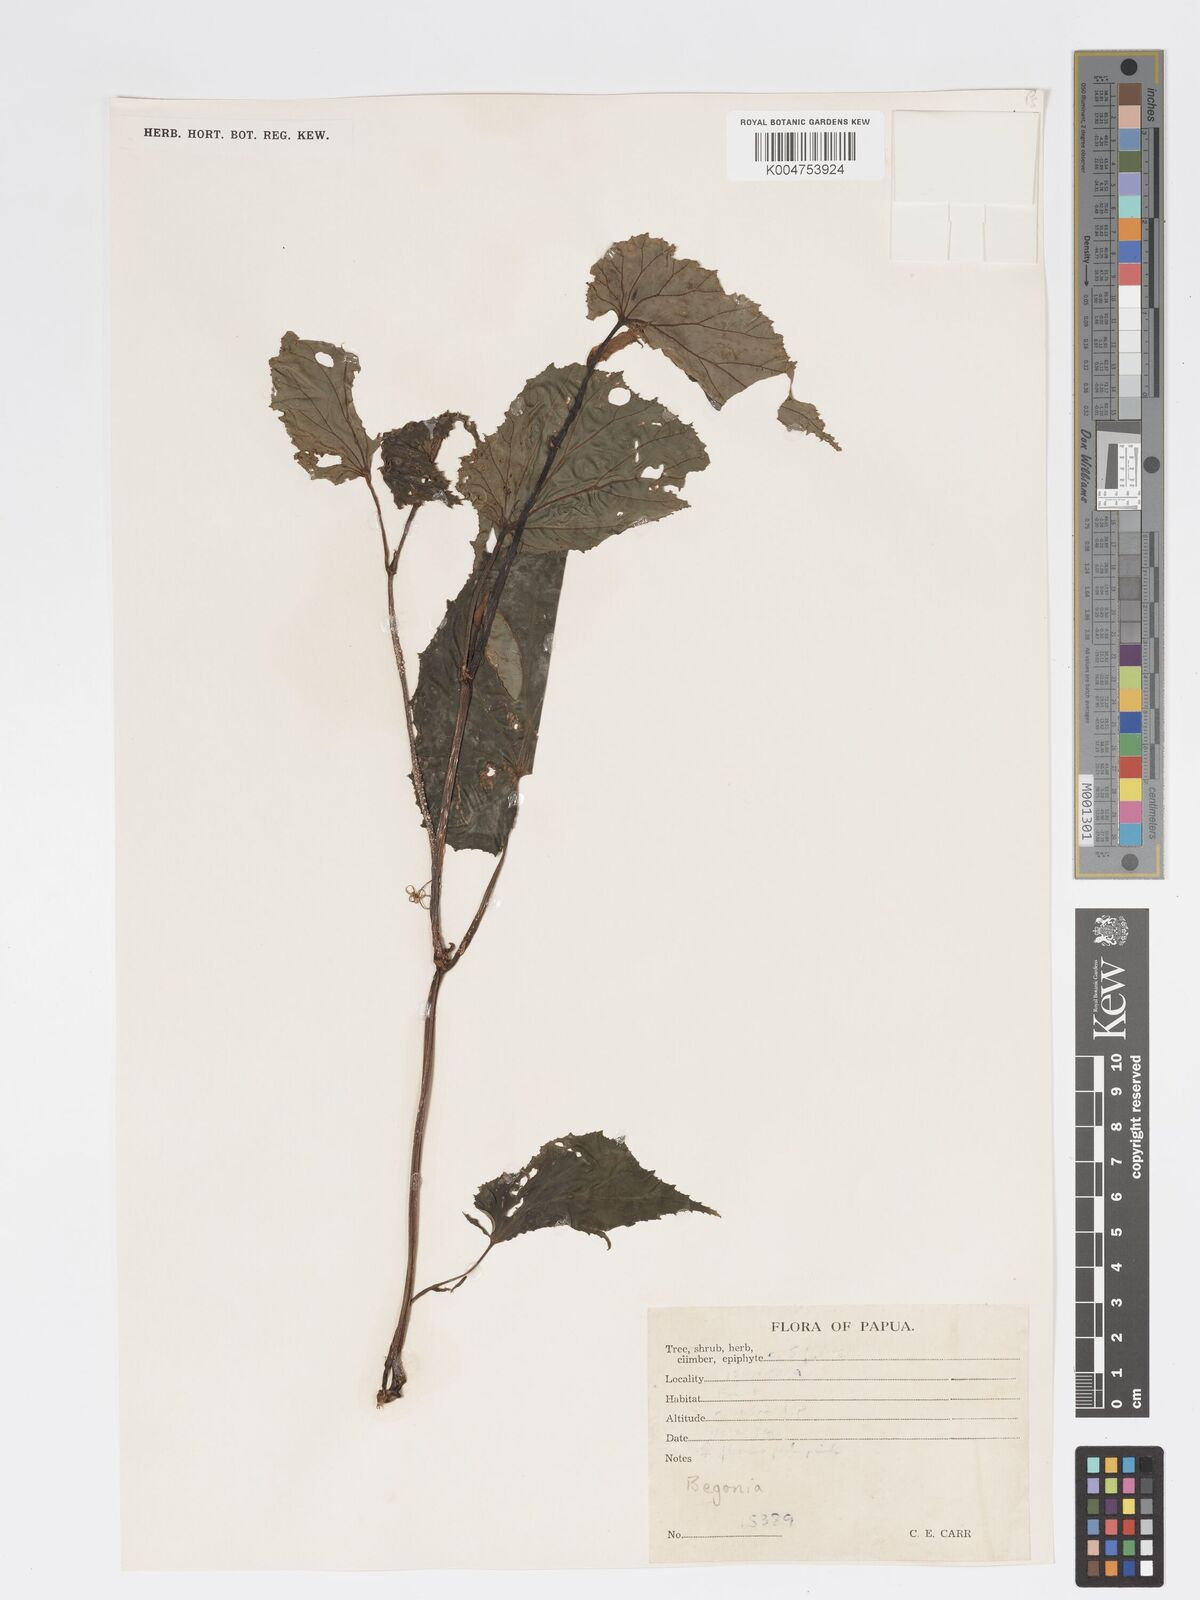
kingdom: Plantae
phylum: Tracheophyta
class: Magnoliopsida
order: Cucurbitales
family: Begoniaceae
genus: Begonia
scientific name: Begonia wollastonii
